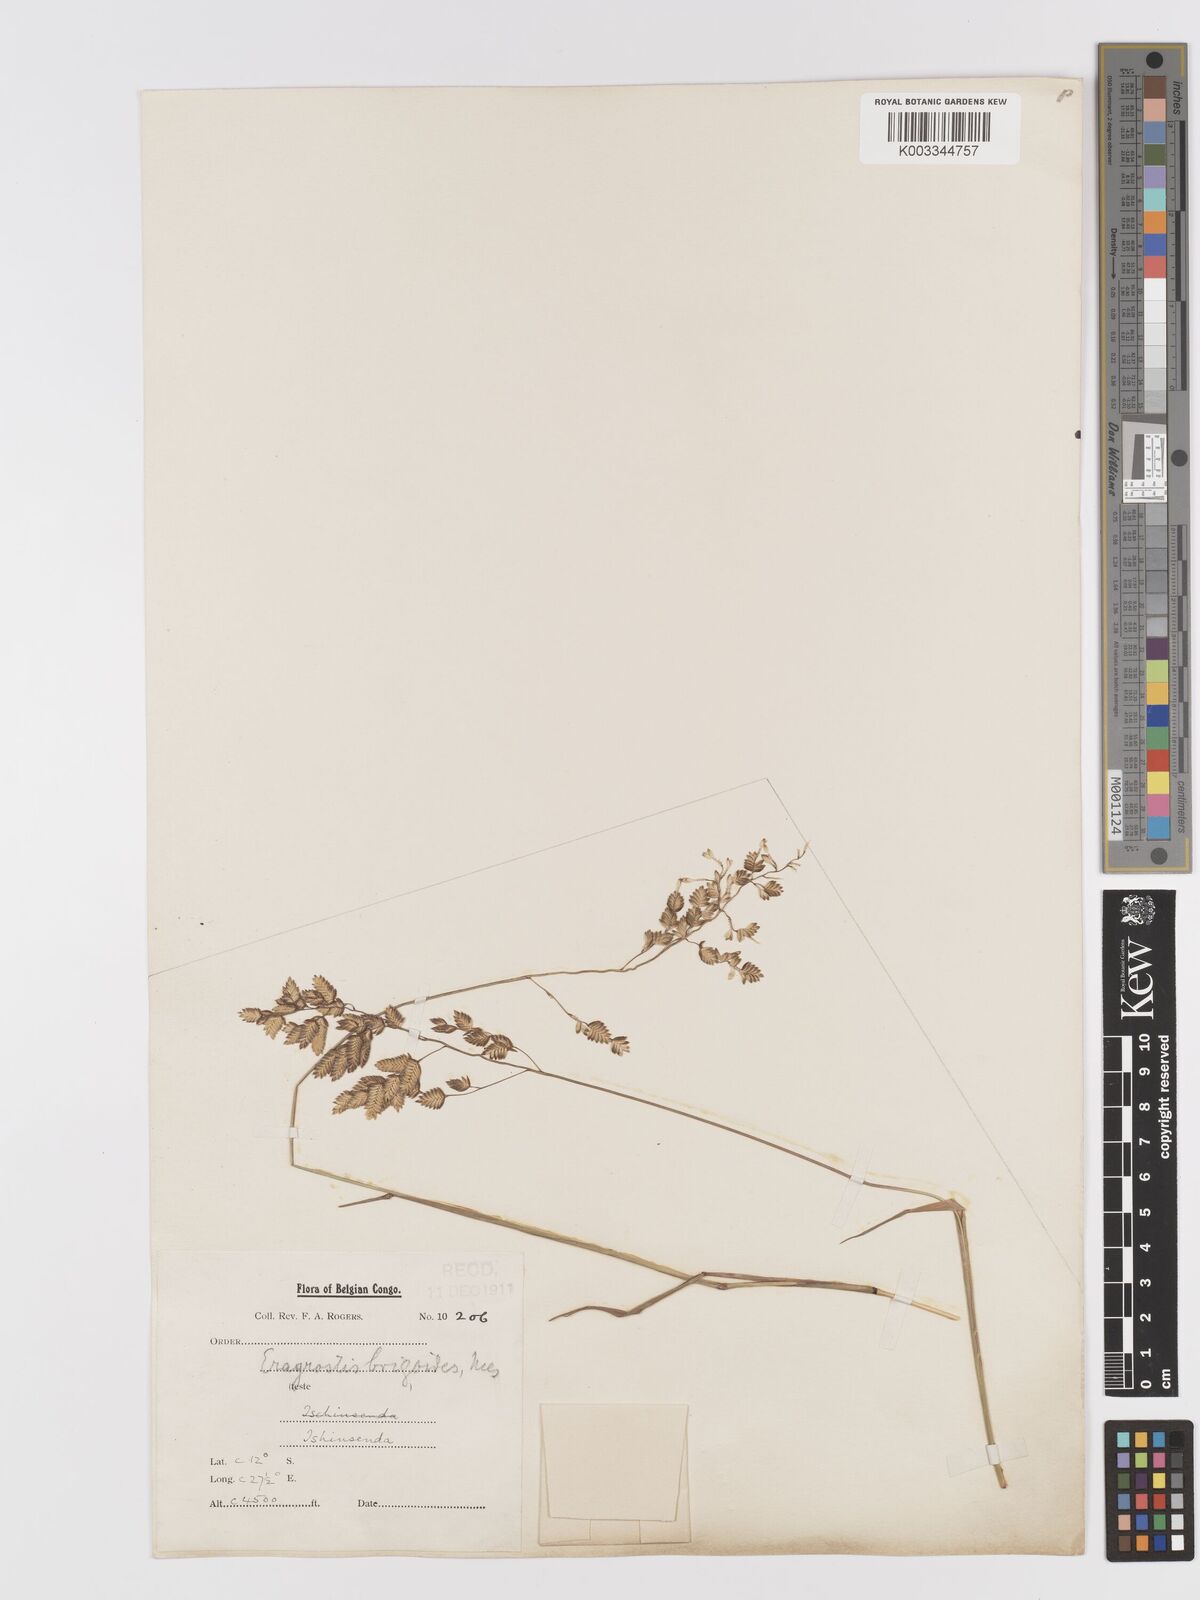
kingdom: Plantae
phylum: Tracheophyta
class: Liliopsida
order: Poales
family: Poaceae
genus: Eragrostis
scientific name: Eragrostis capensis
